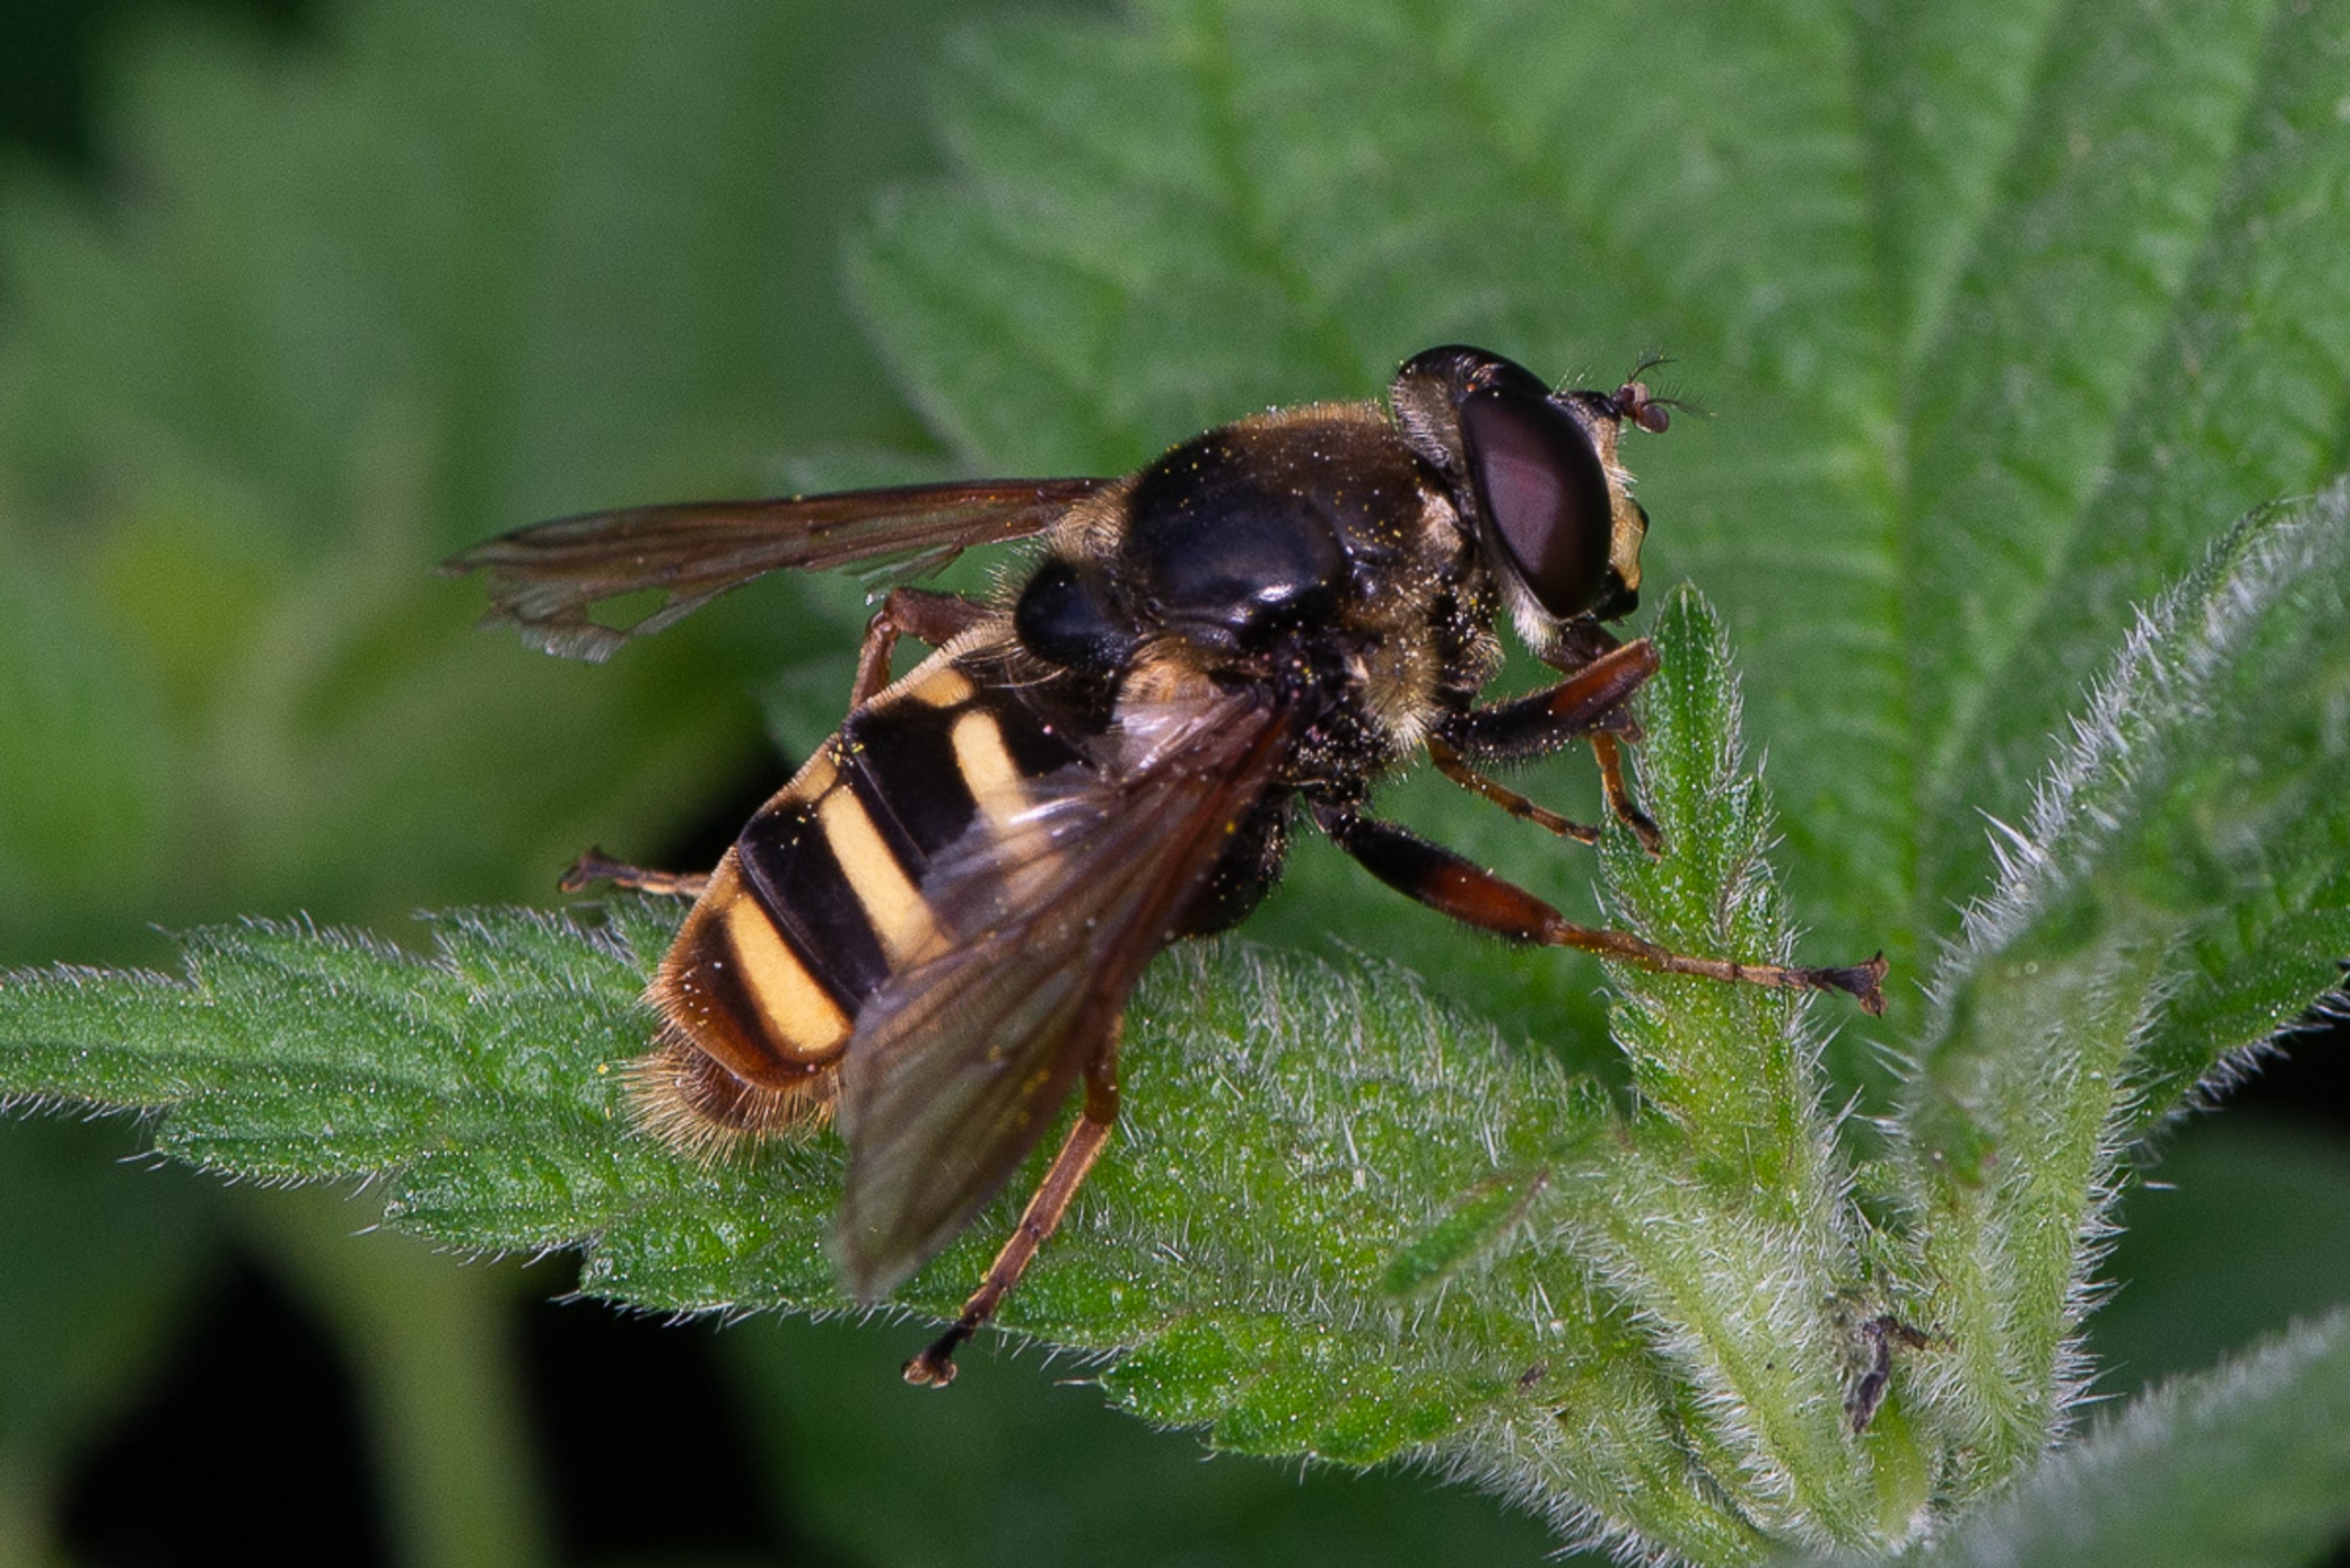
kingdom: Animalia
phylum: Arthropoda
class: Insecta
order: Diptera
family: Syrphidae
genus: Sericomyia
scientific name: Sericomyia silentis
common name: Tørve-silkesvirreflue
